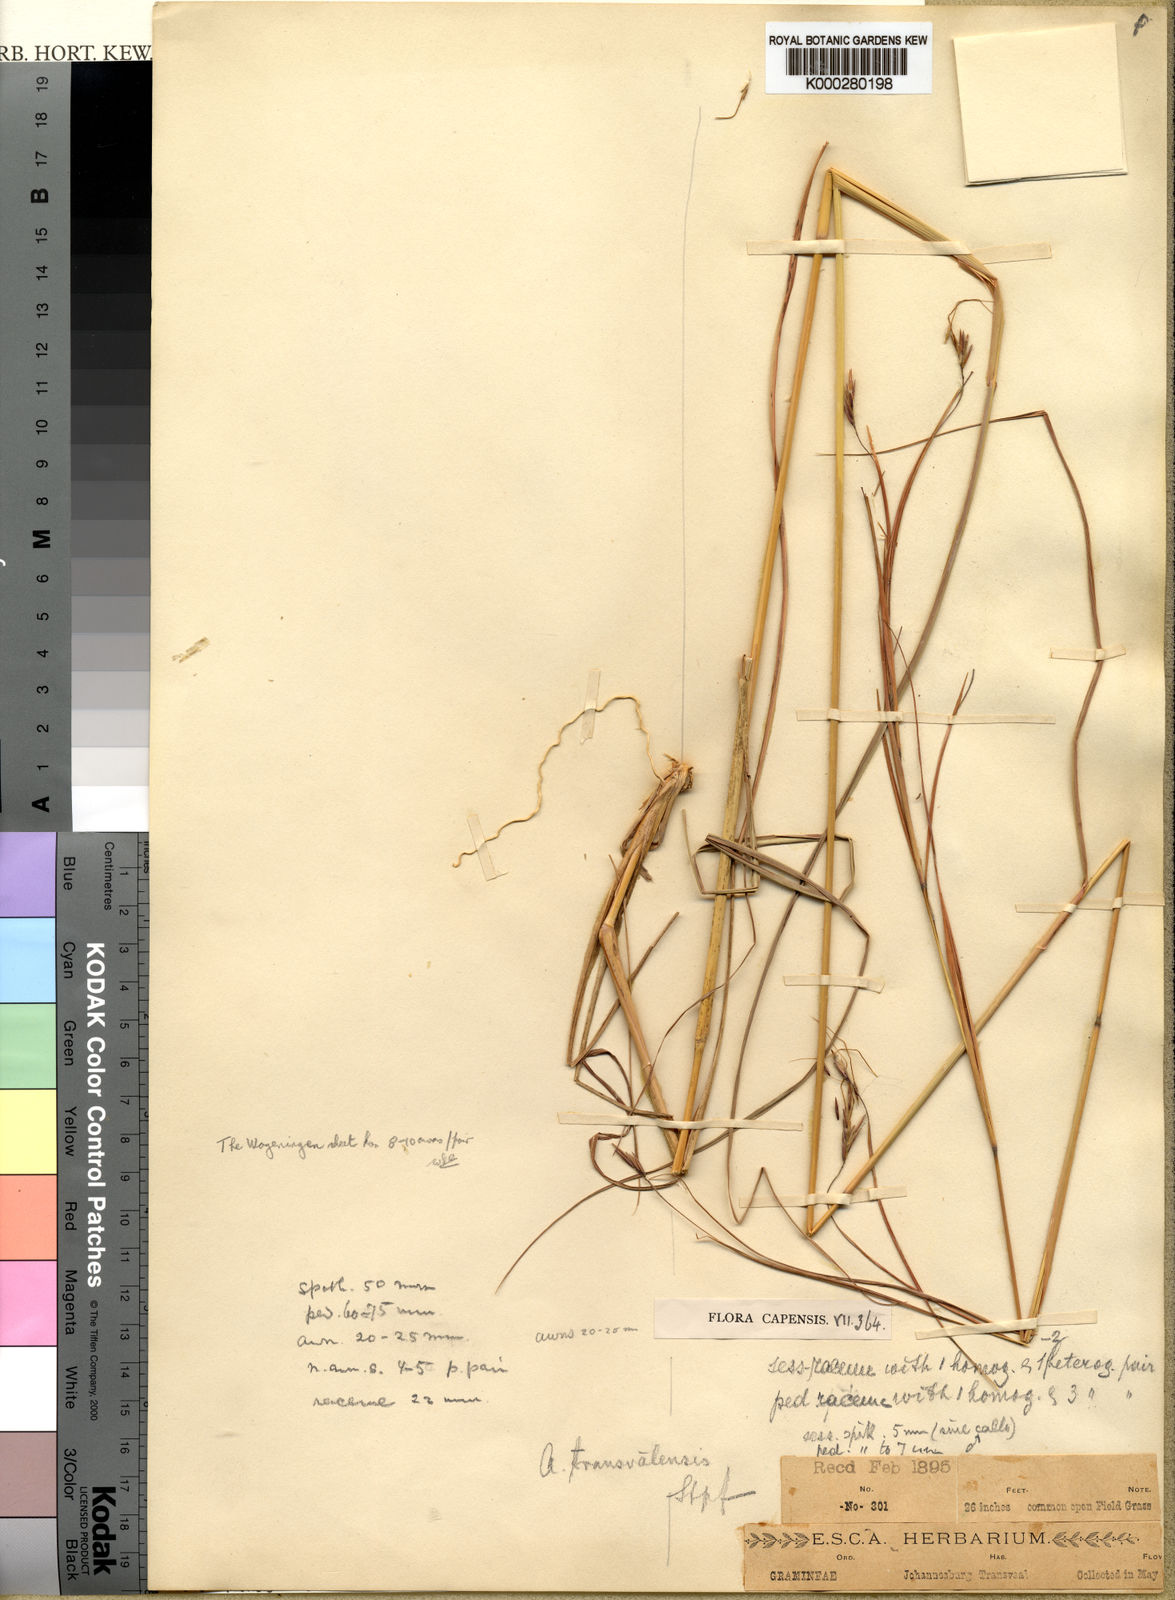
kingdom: Plantae
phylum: Tracheophyta
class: Liliopsida
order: Poales
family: Poaceae
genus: Hyparrhenia
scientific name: Hyparrhenia hirta
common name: Thatching grass
